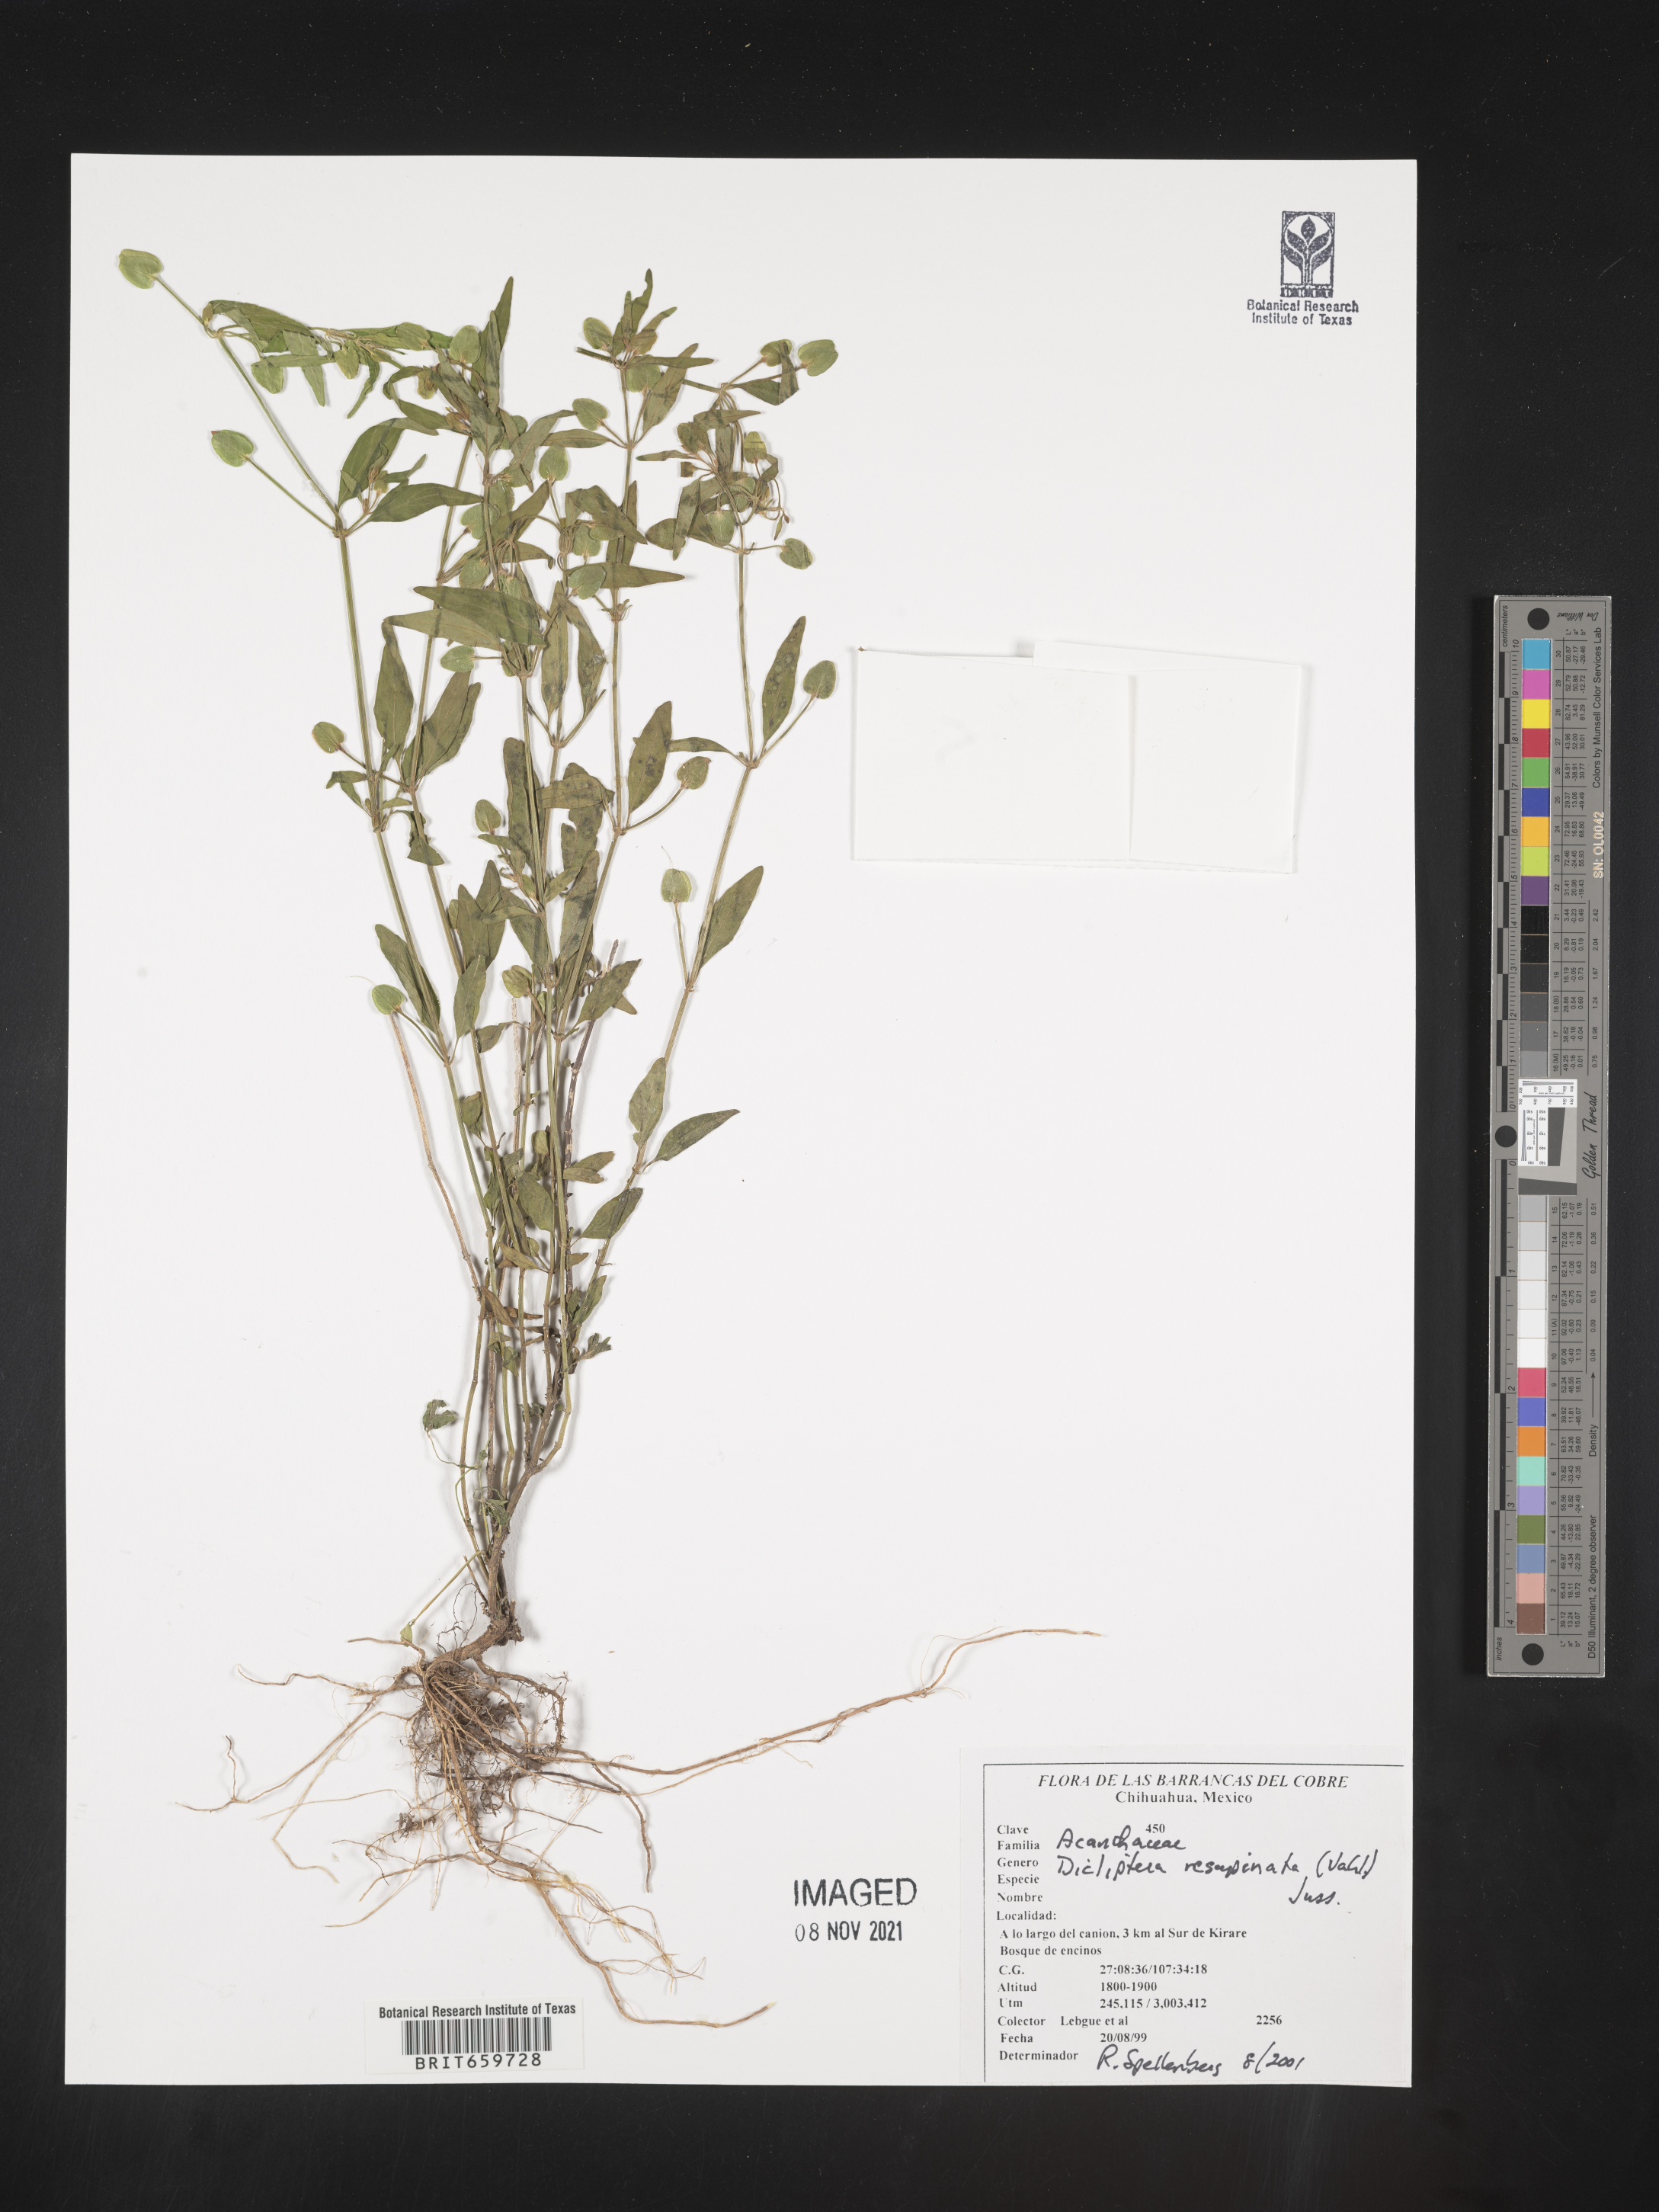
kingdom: Plantae
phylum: Tracheophyta
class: Magnoliopsida
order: Lamiales
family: Acanthaceae
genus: Dicliptera
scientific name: Dicliptera
